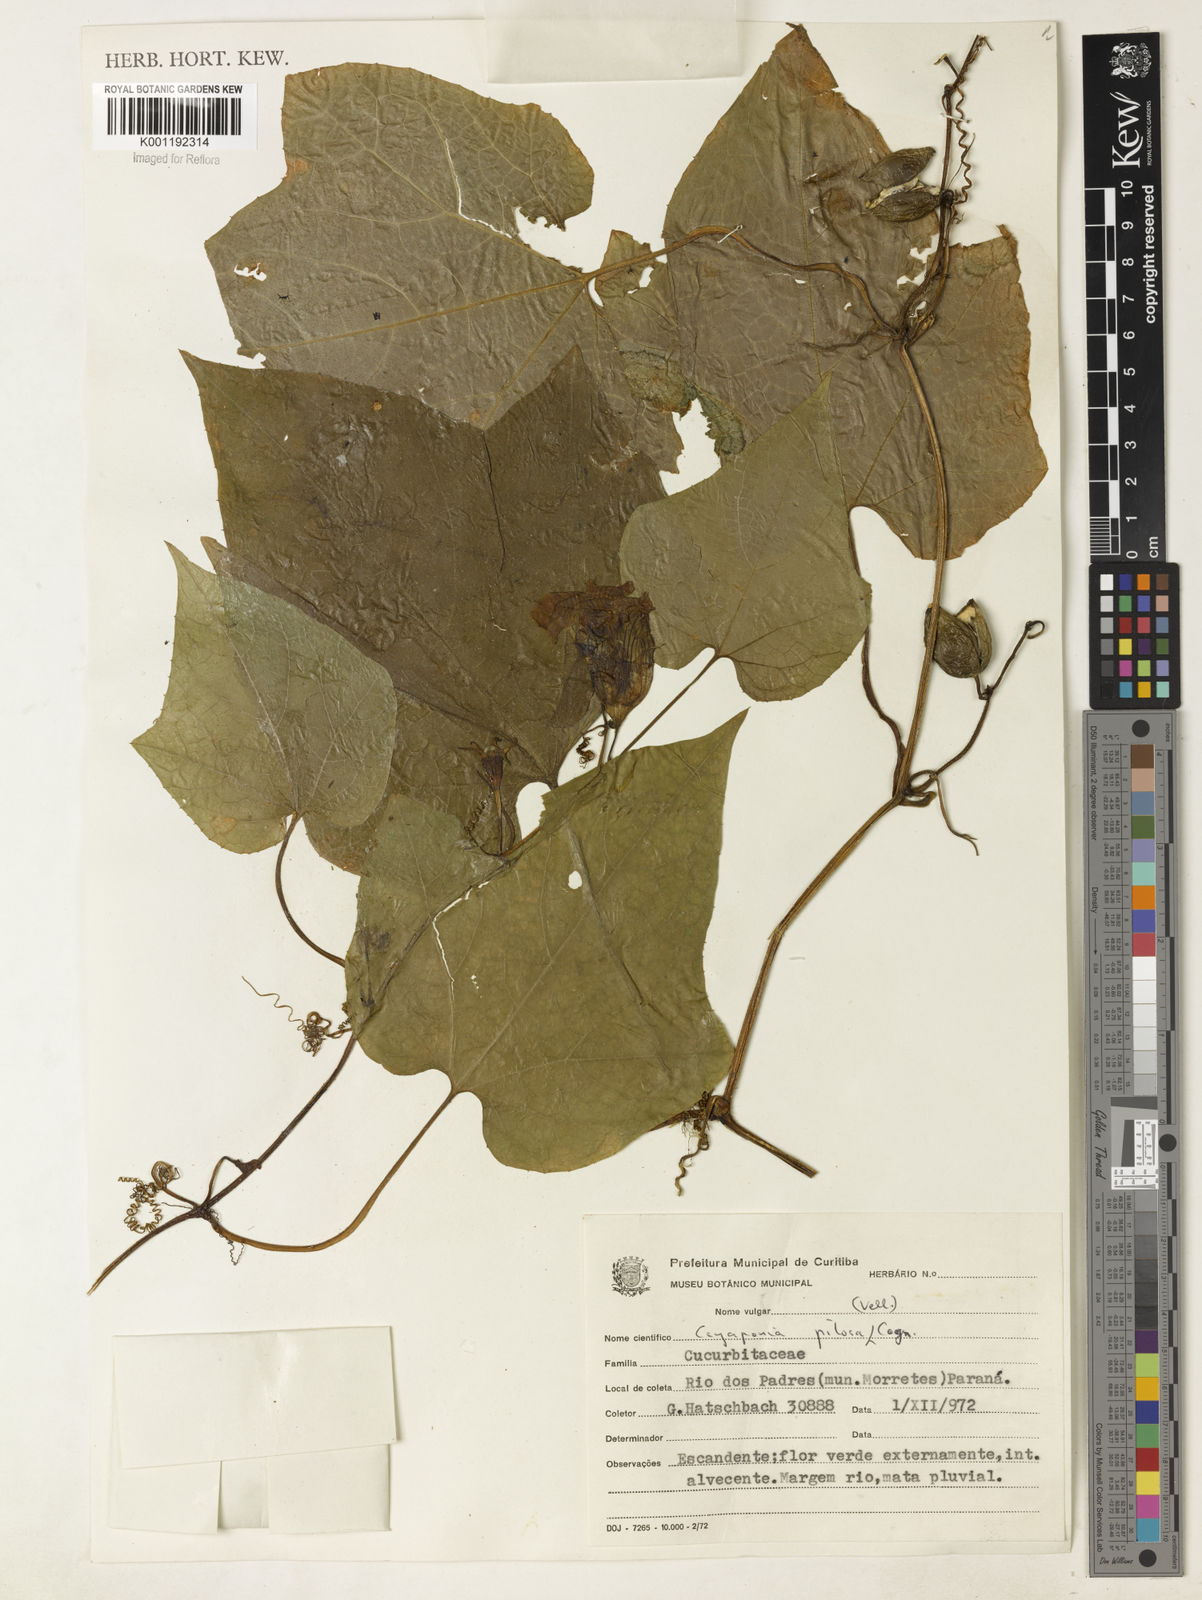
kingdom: Plantae
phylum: Tracheophyta
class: Magnoliopsida
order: Cucurbitales
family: Cucurbitaceae
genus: Cayaponia
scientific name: Cayaponia pilosa
